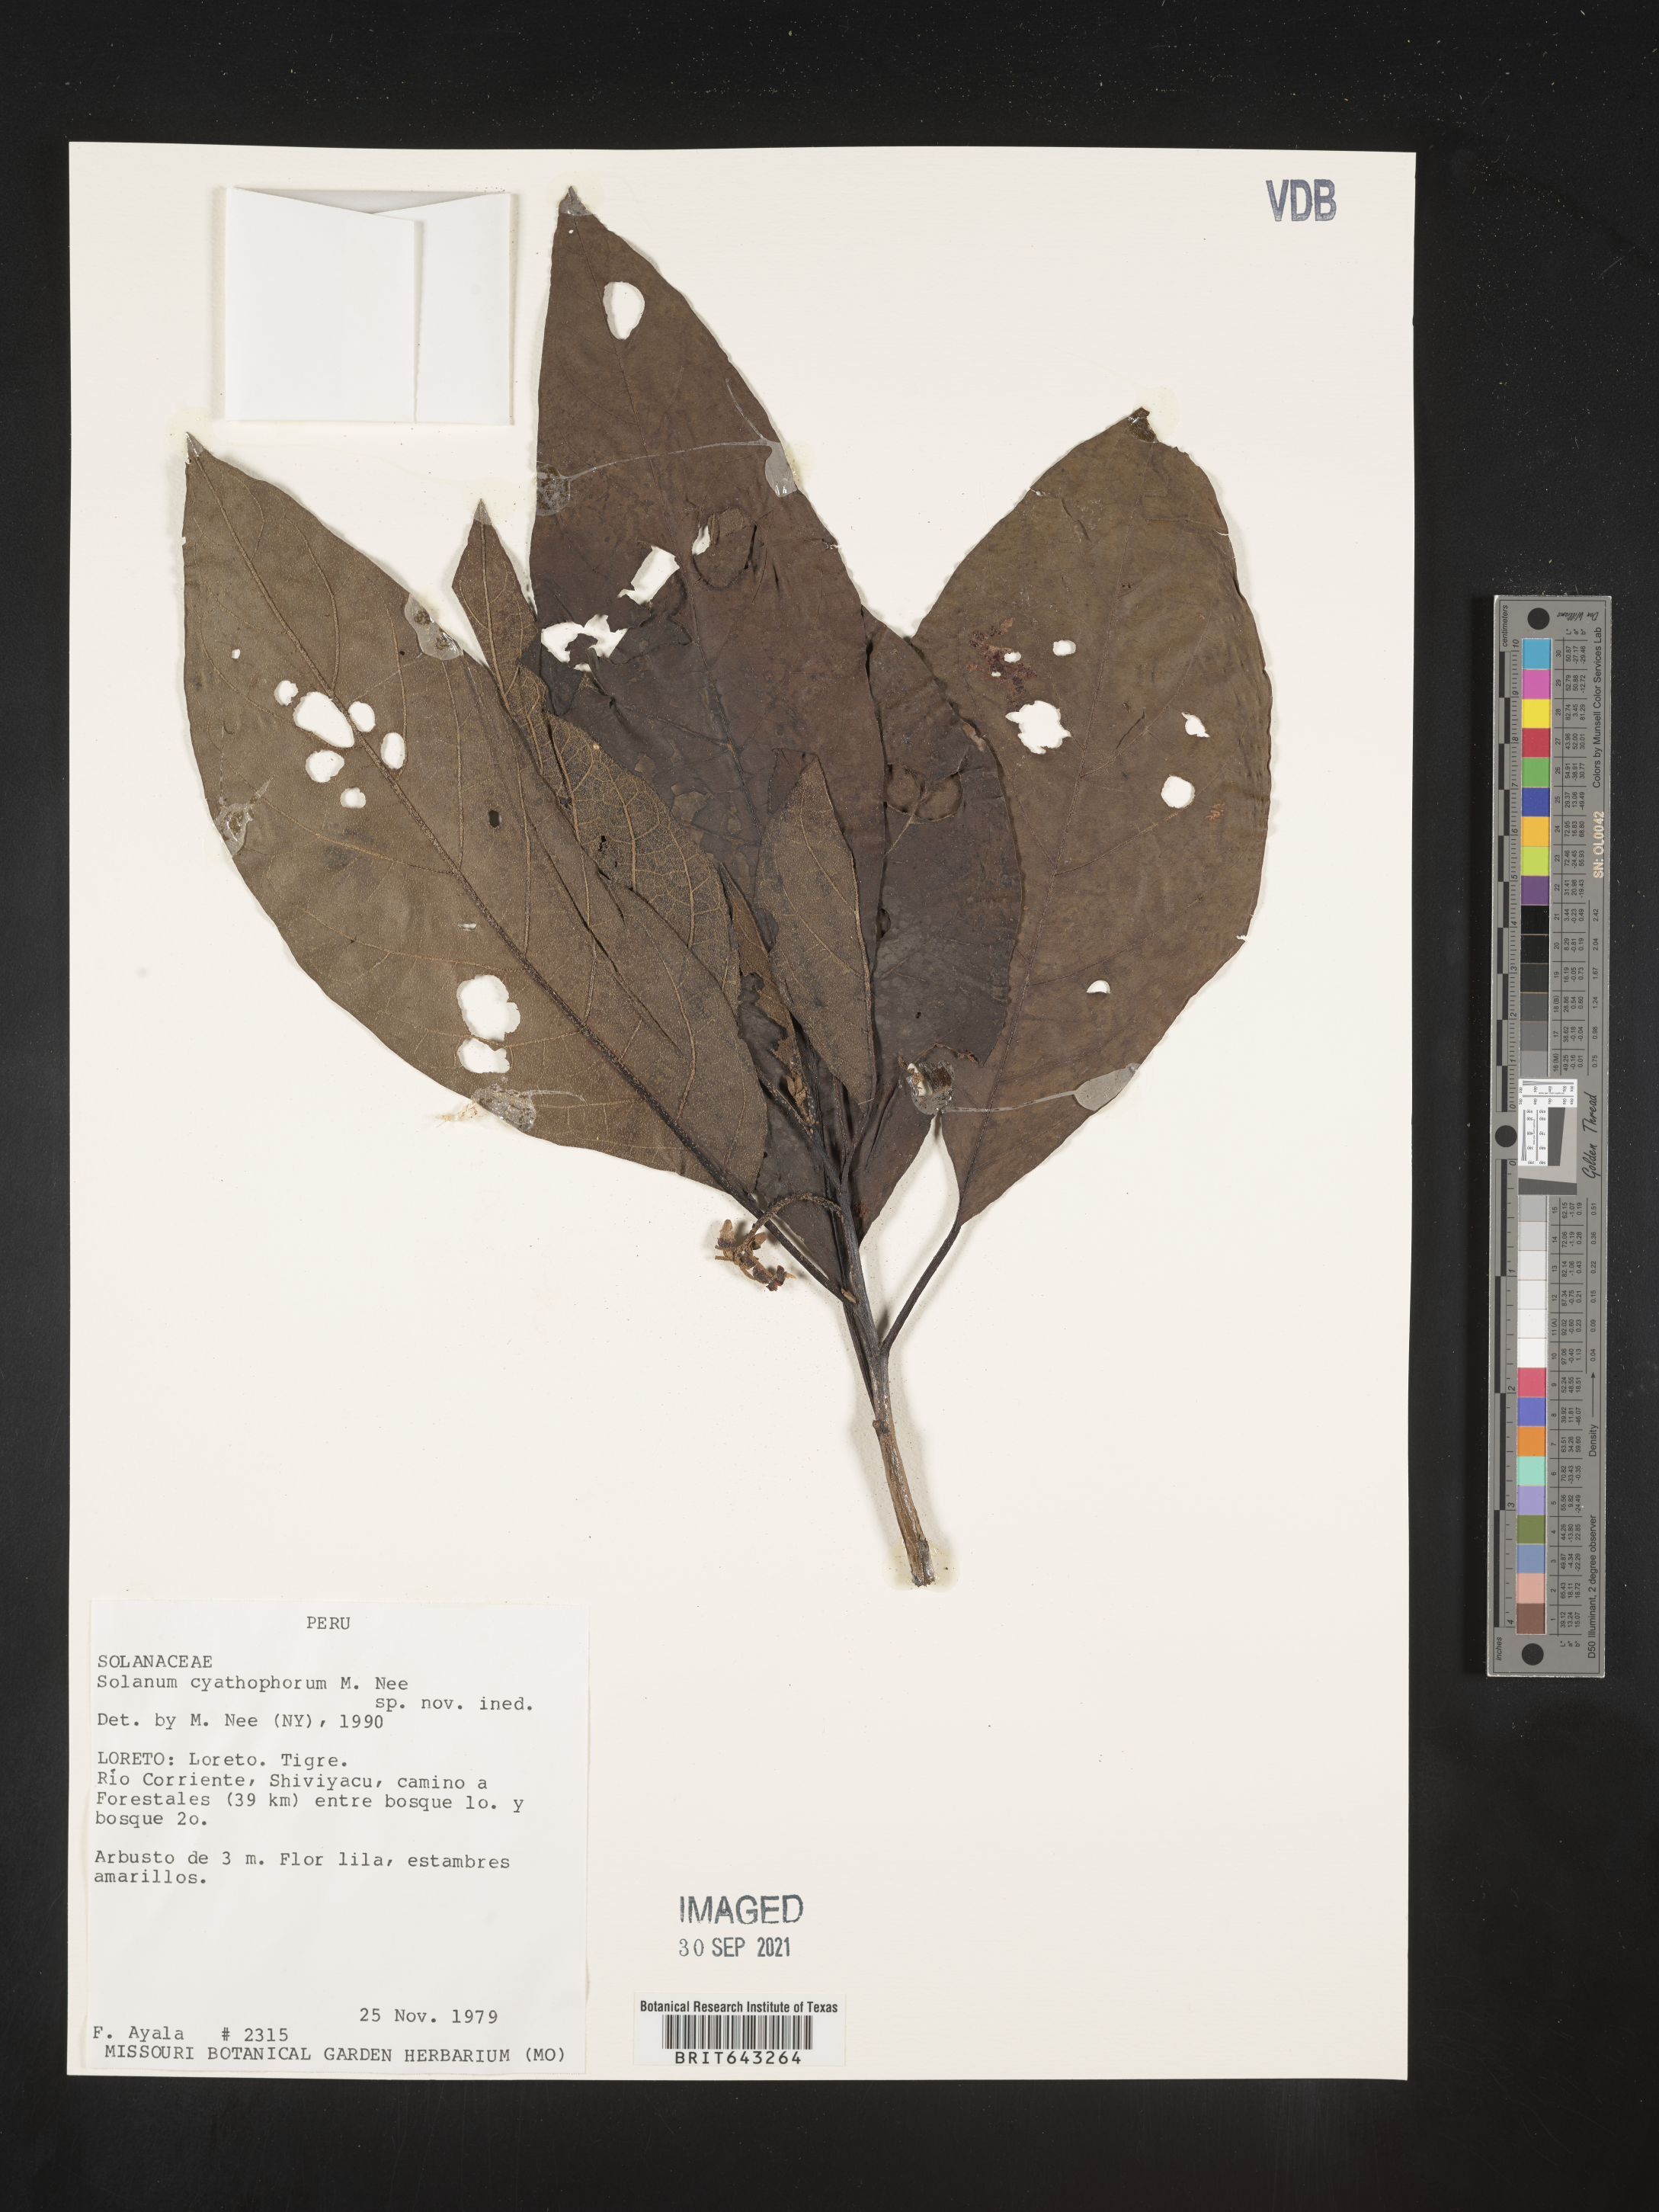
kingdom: Plantae
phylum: Tracheophyta
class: Magnoliopsida
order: Solanales
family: Solanaceae
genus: Solanum
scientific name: Solanum
